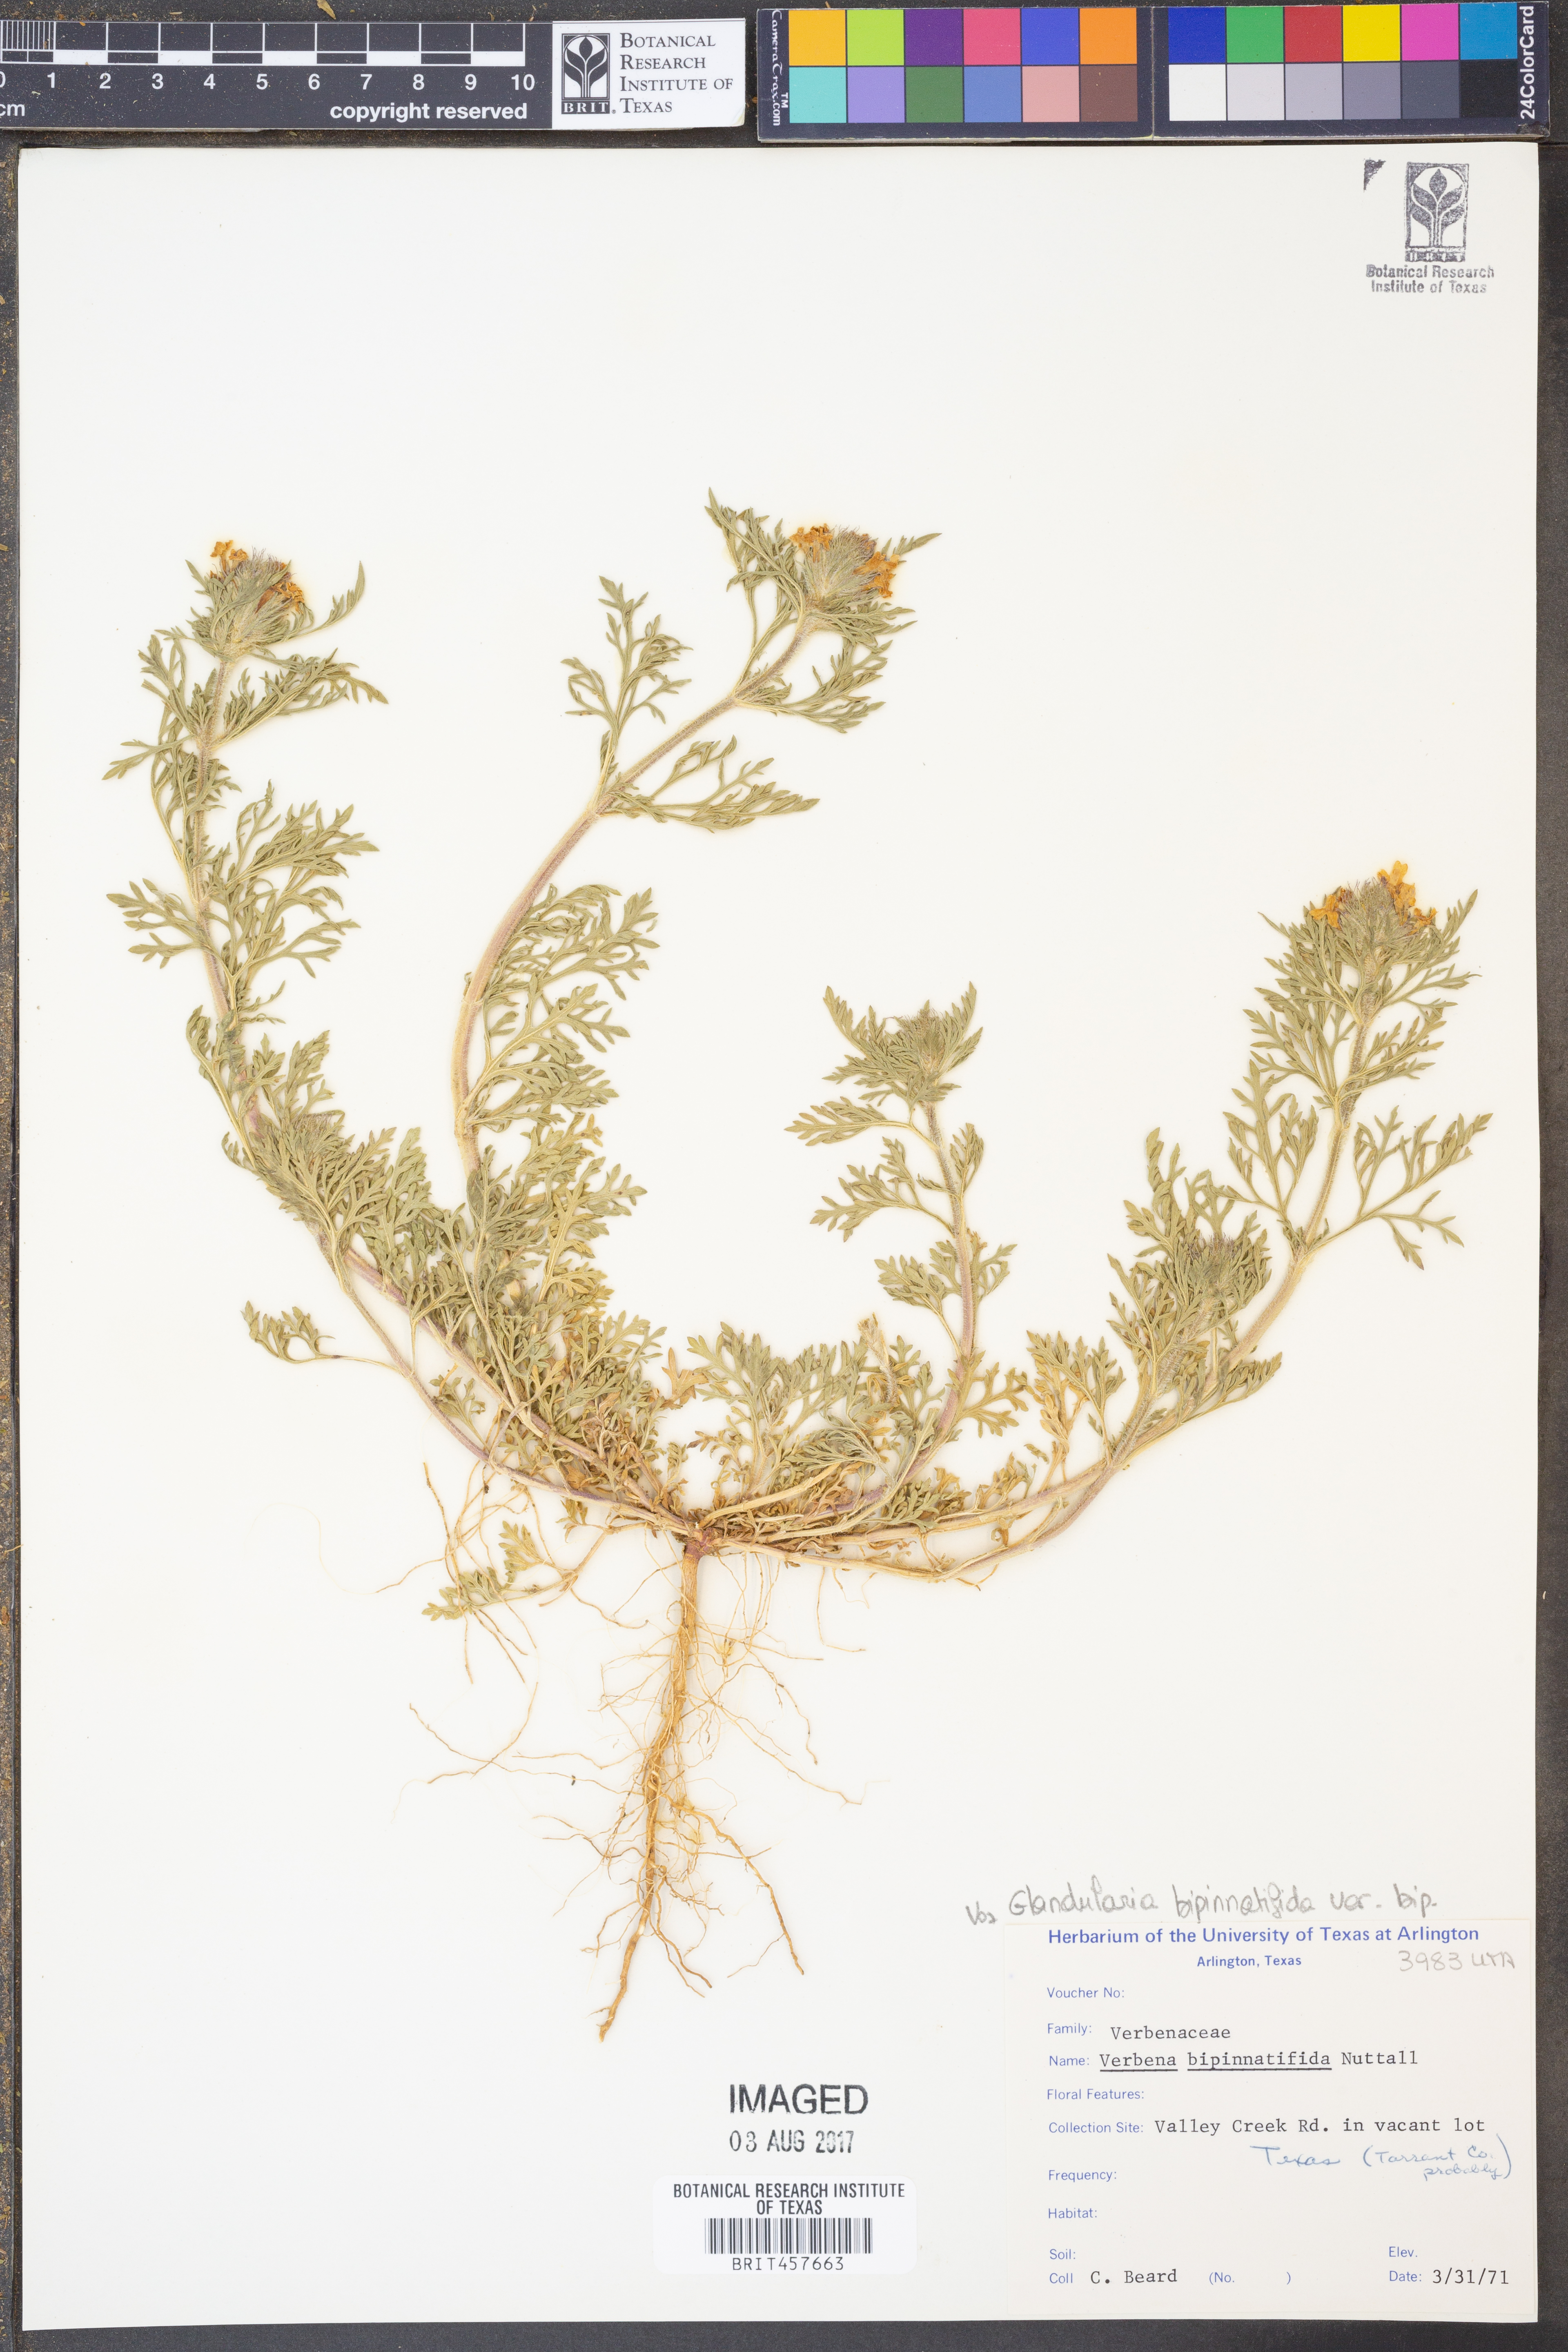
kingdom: Plantae
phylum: Tracheophyta
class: Magnoliopsida
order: Lamiales
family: Verbenaceae
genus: Verbena
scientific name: Verbena bipinnatifida
